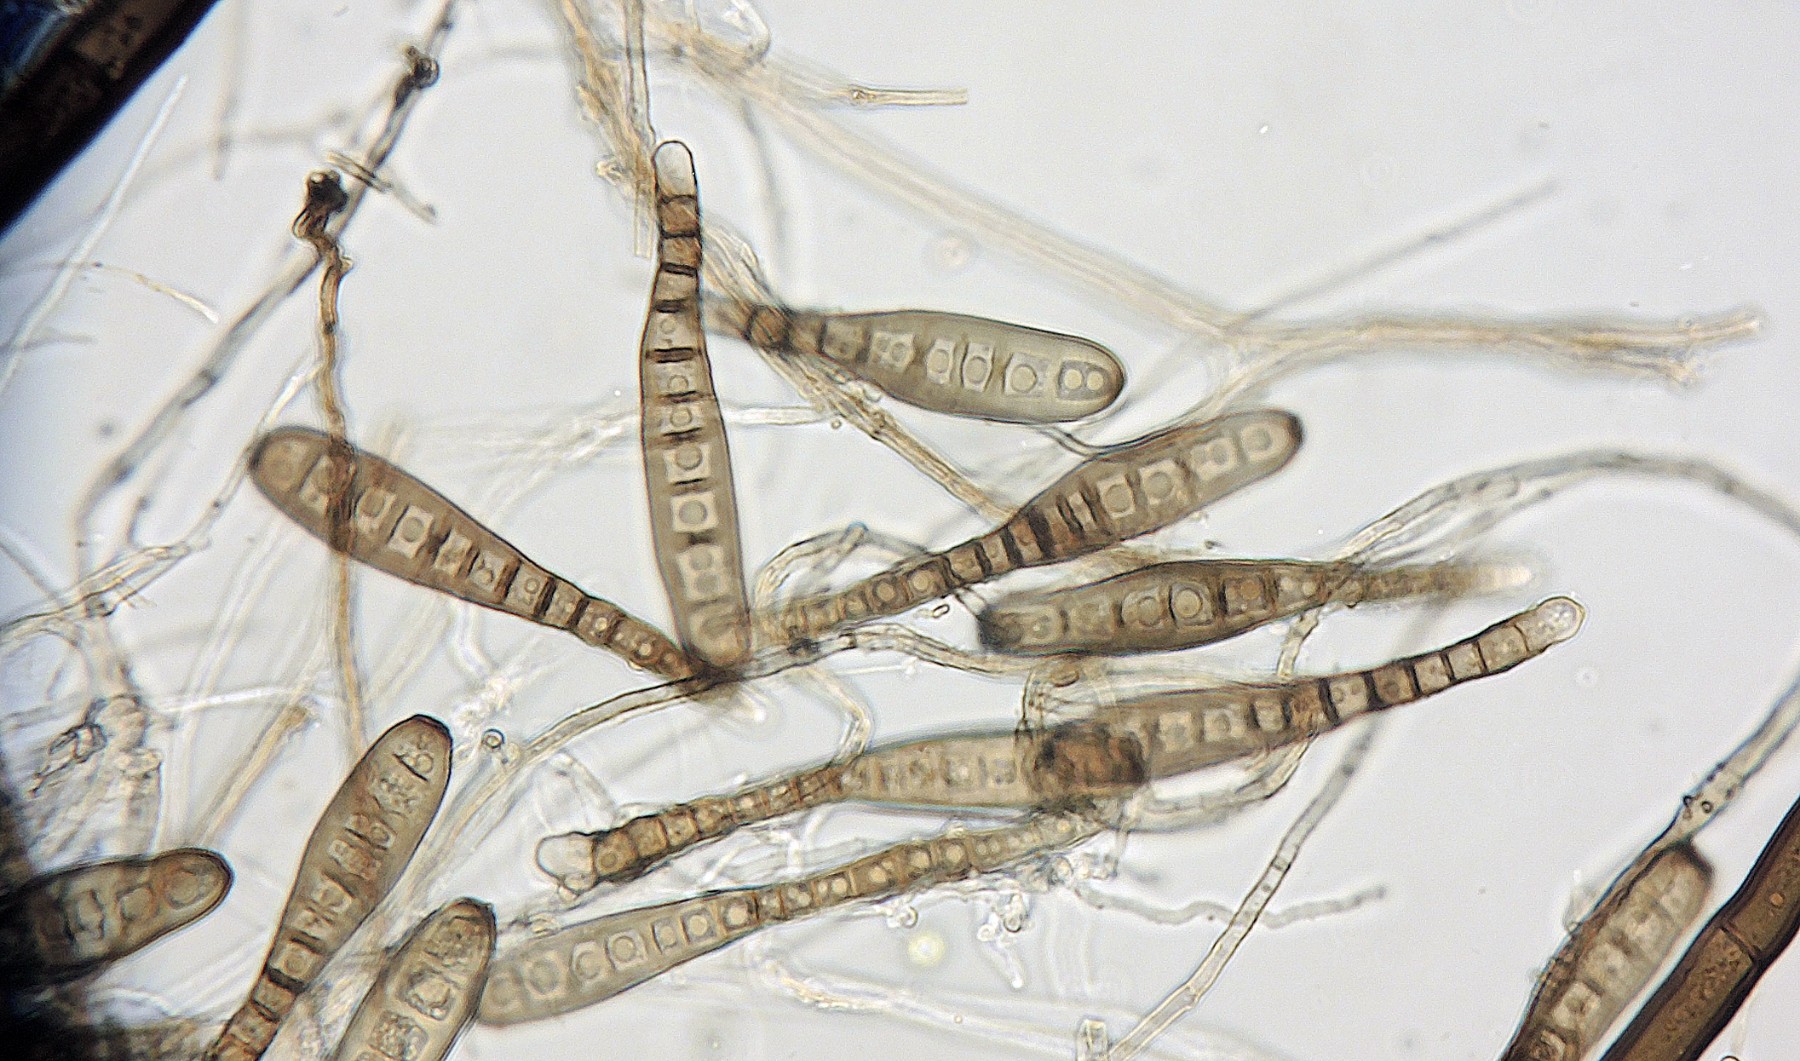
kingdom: Fungi
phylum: Ascomycota
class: Dothideomycetes
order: Pleosporales
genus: Sporidesmium
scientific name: Sporidesmium
